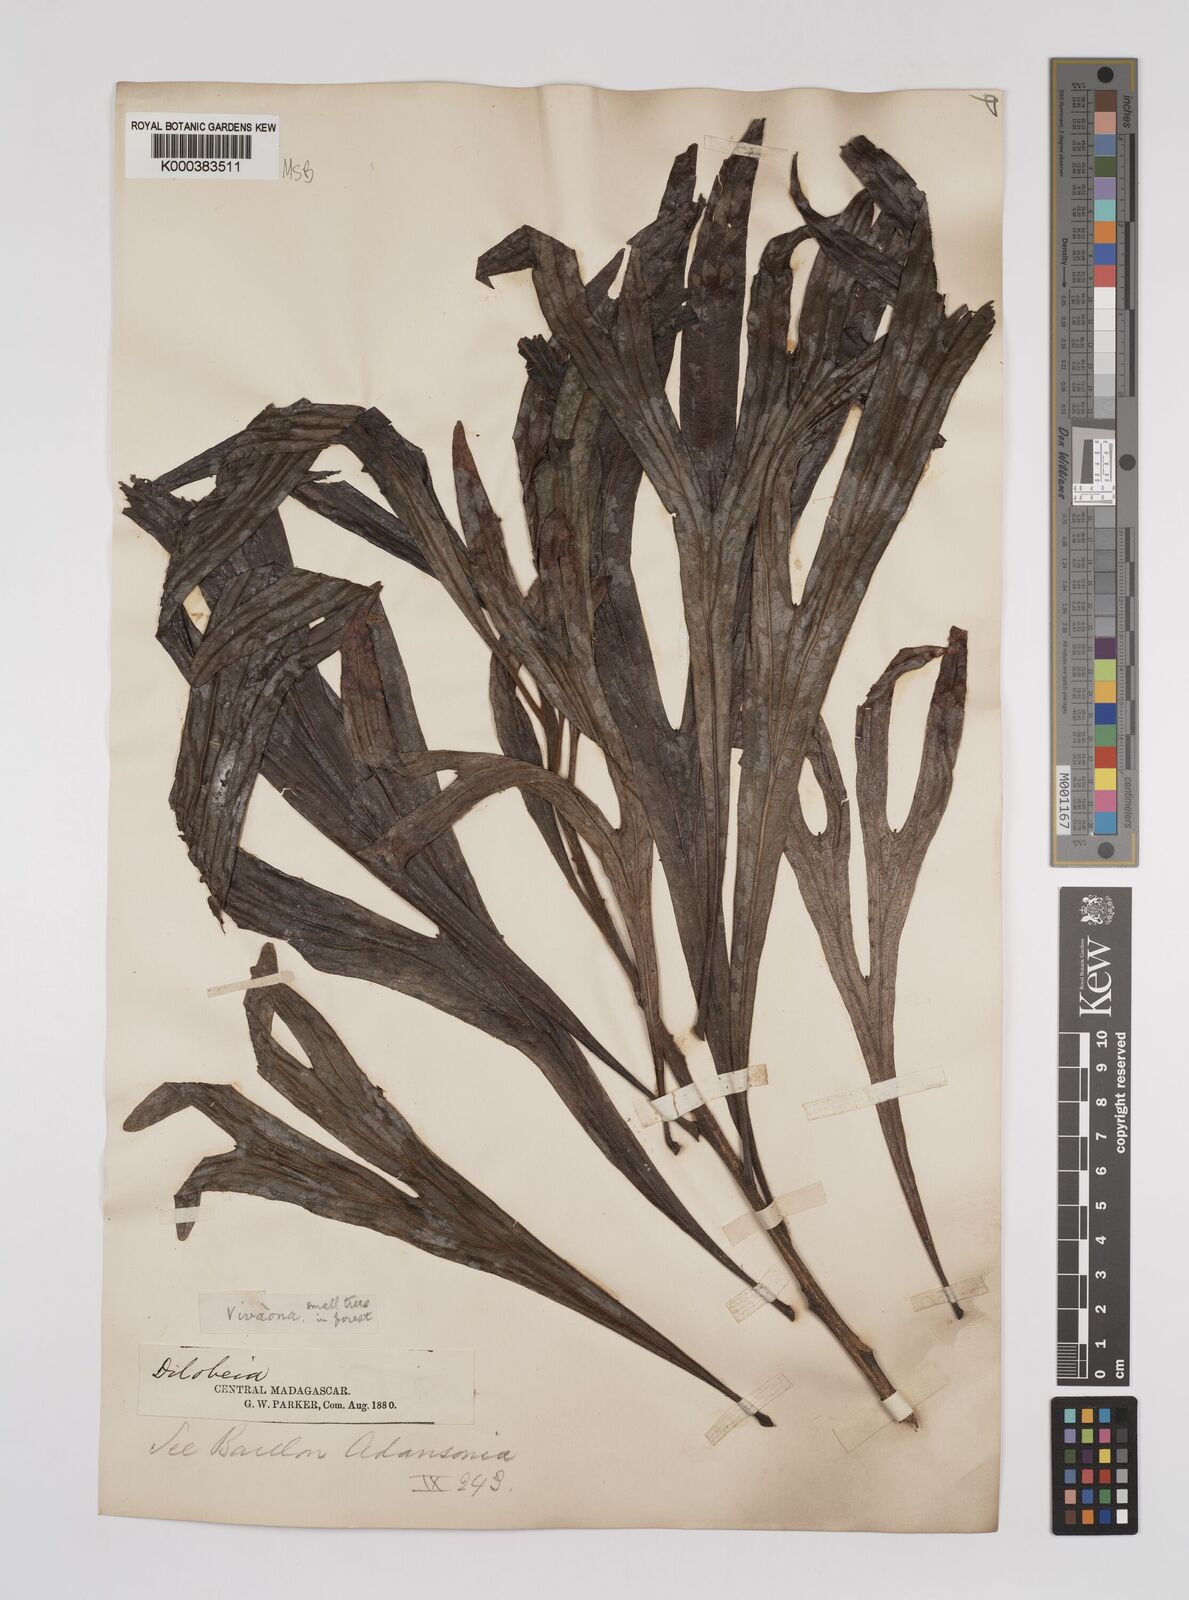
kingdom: Plantae
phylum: Tracheophyta
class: Magnoliopsida
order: Proteales
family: Proteaceae
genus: Dilobeia
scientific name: Dilobeia thouarsii
